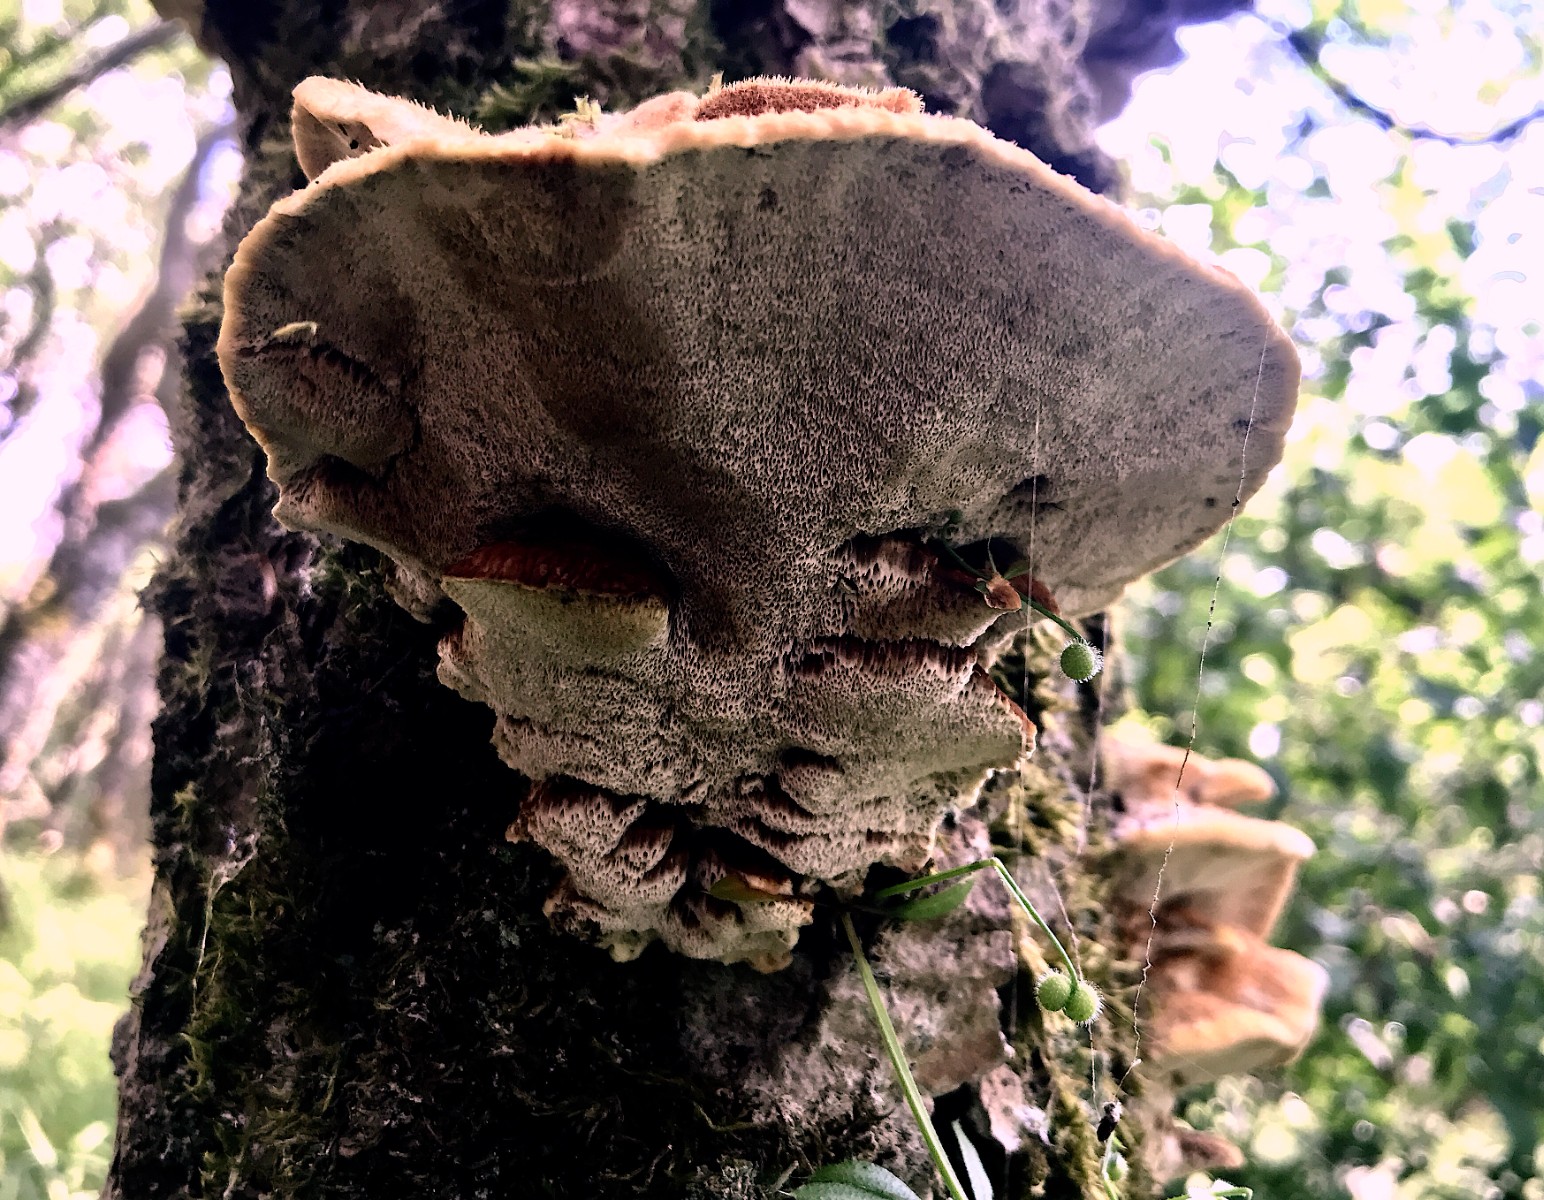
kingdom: Fungi
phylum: Basidiomycota
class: Agaricomycetes
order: Hymenochaetales
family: Hymenochaetaceae
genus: Inocutis
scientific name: Inocutis rheades
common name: ræve-spejlporesvamp
